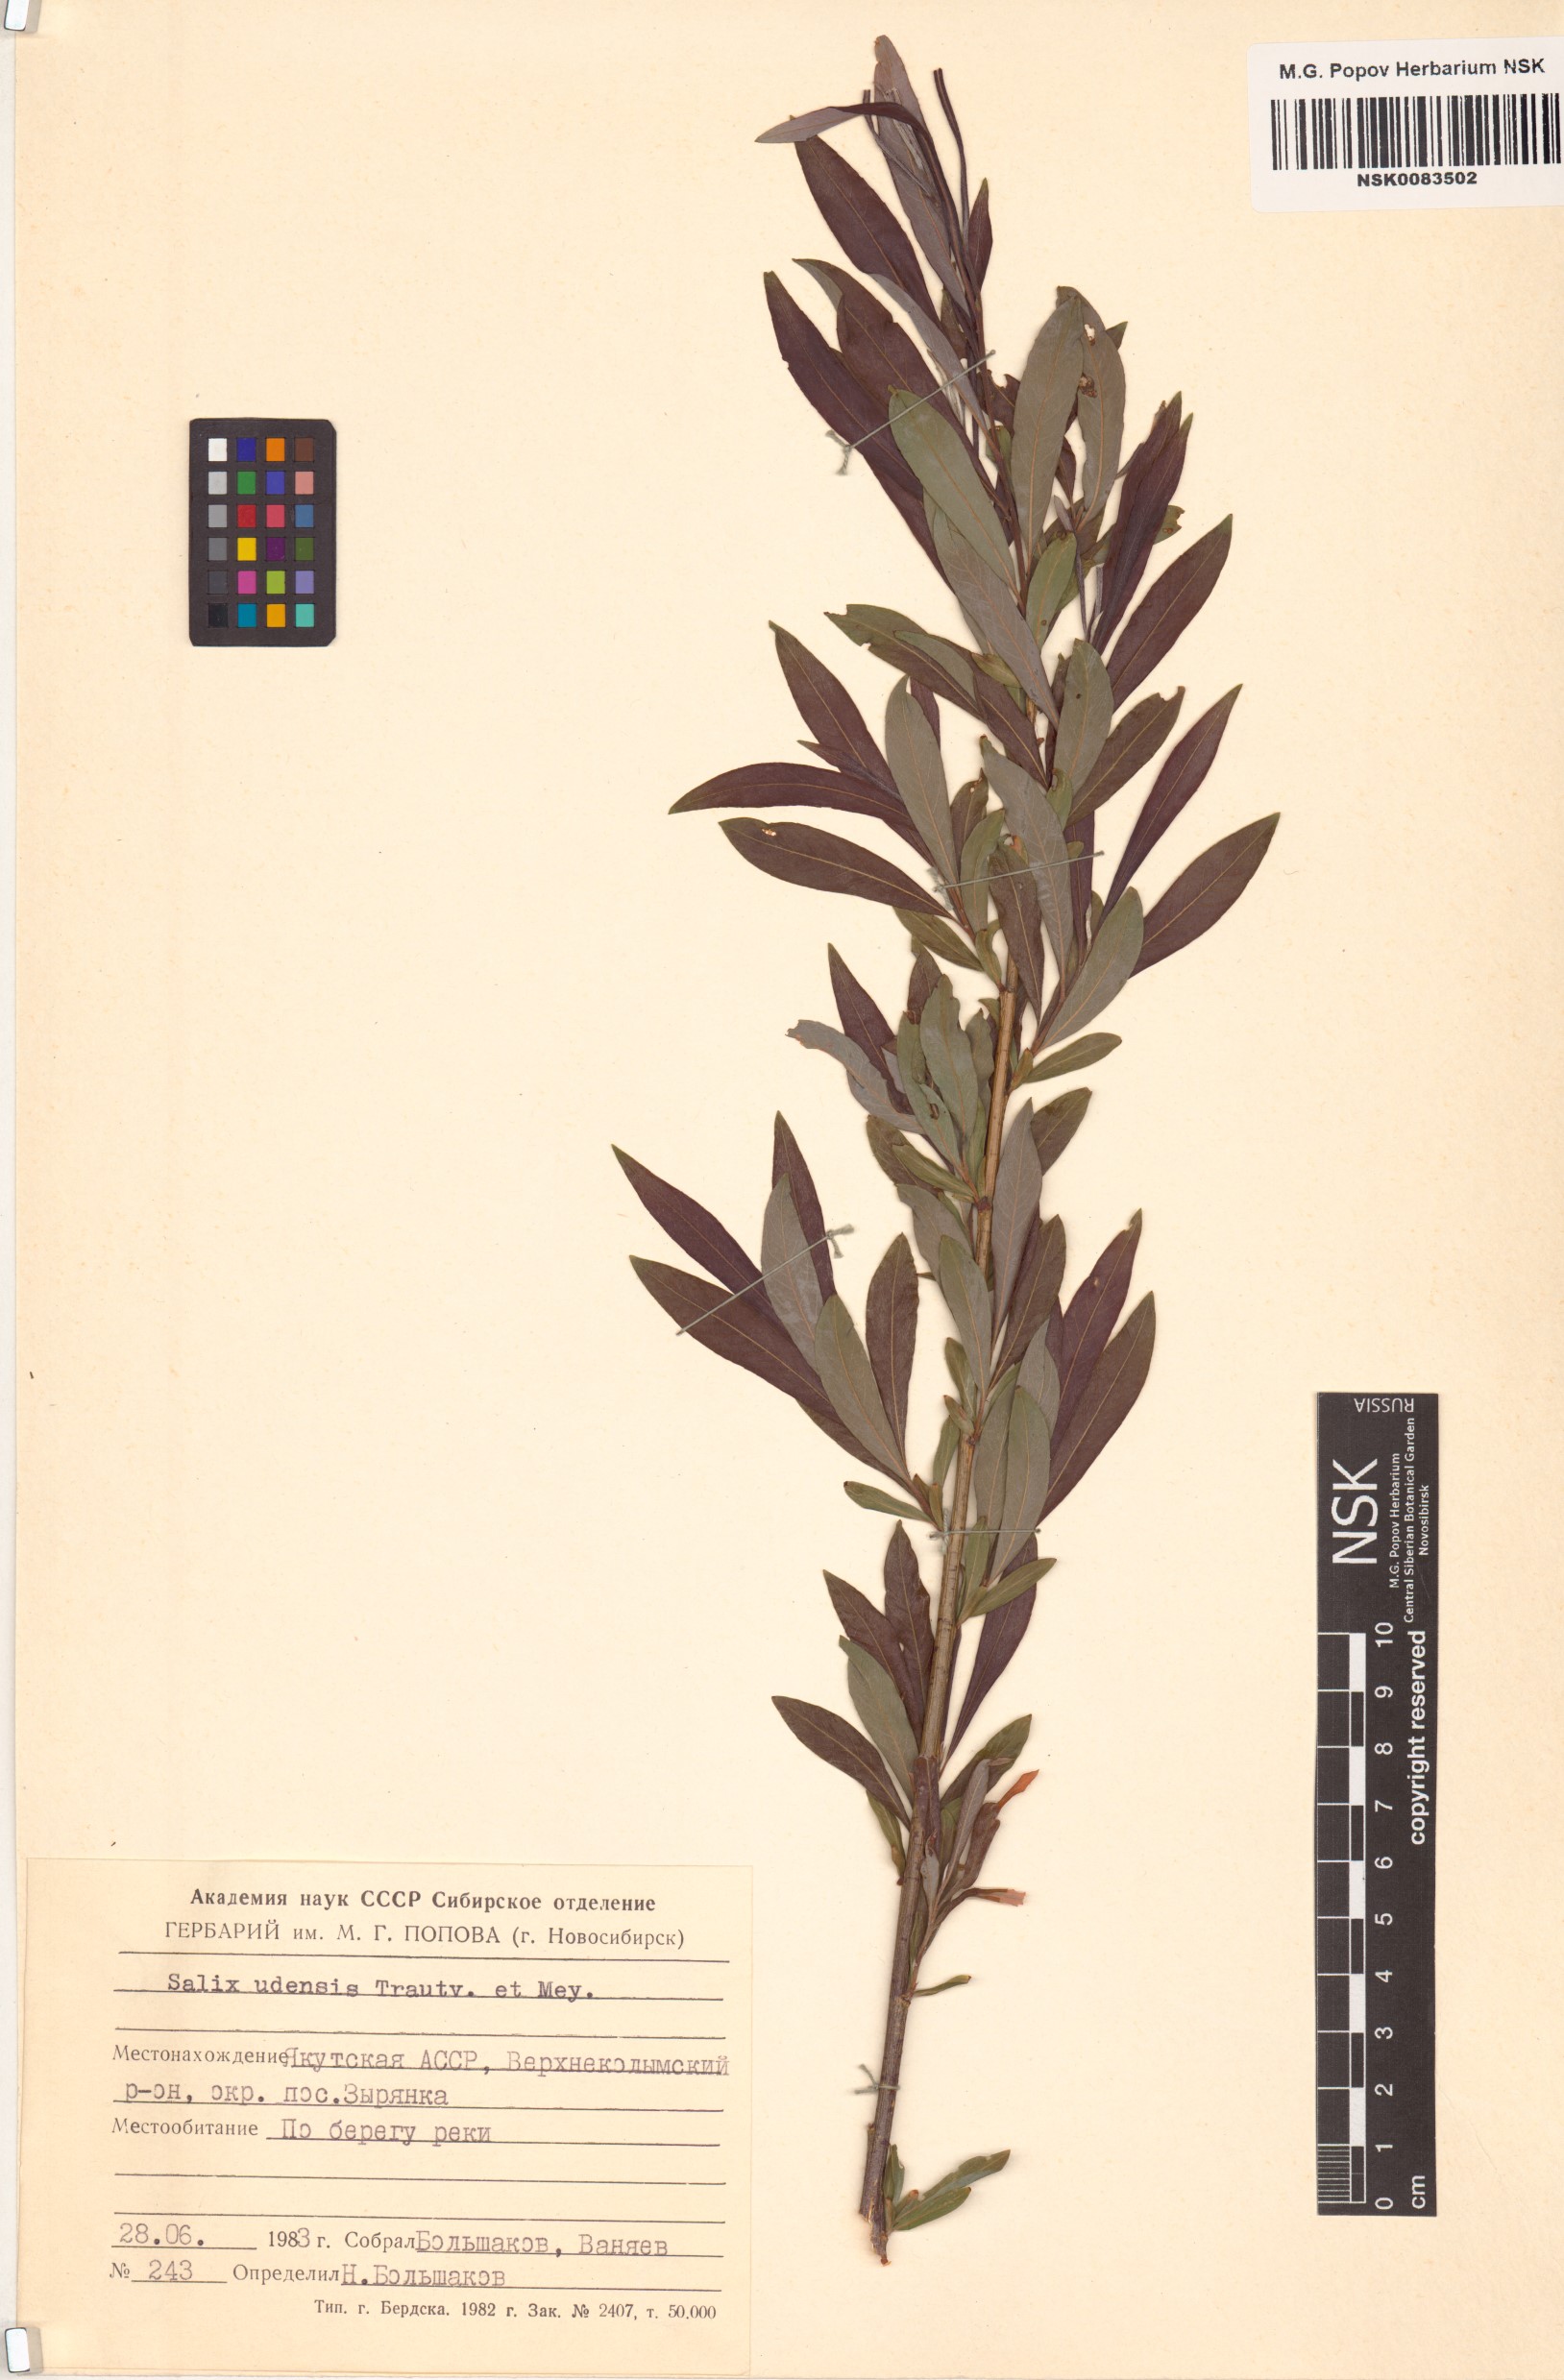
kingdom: Plantae
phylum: Tracheophyta
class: Magnoliopsida
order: Malpighiales
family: Salicaceae
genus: Salix
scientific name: Salix udensis
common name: Sachalin willow
